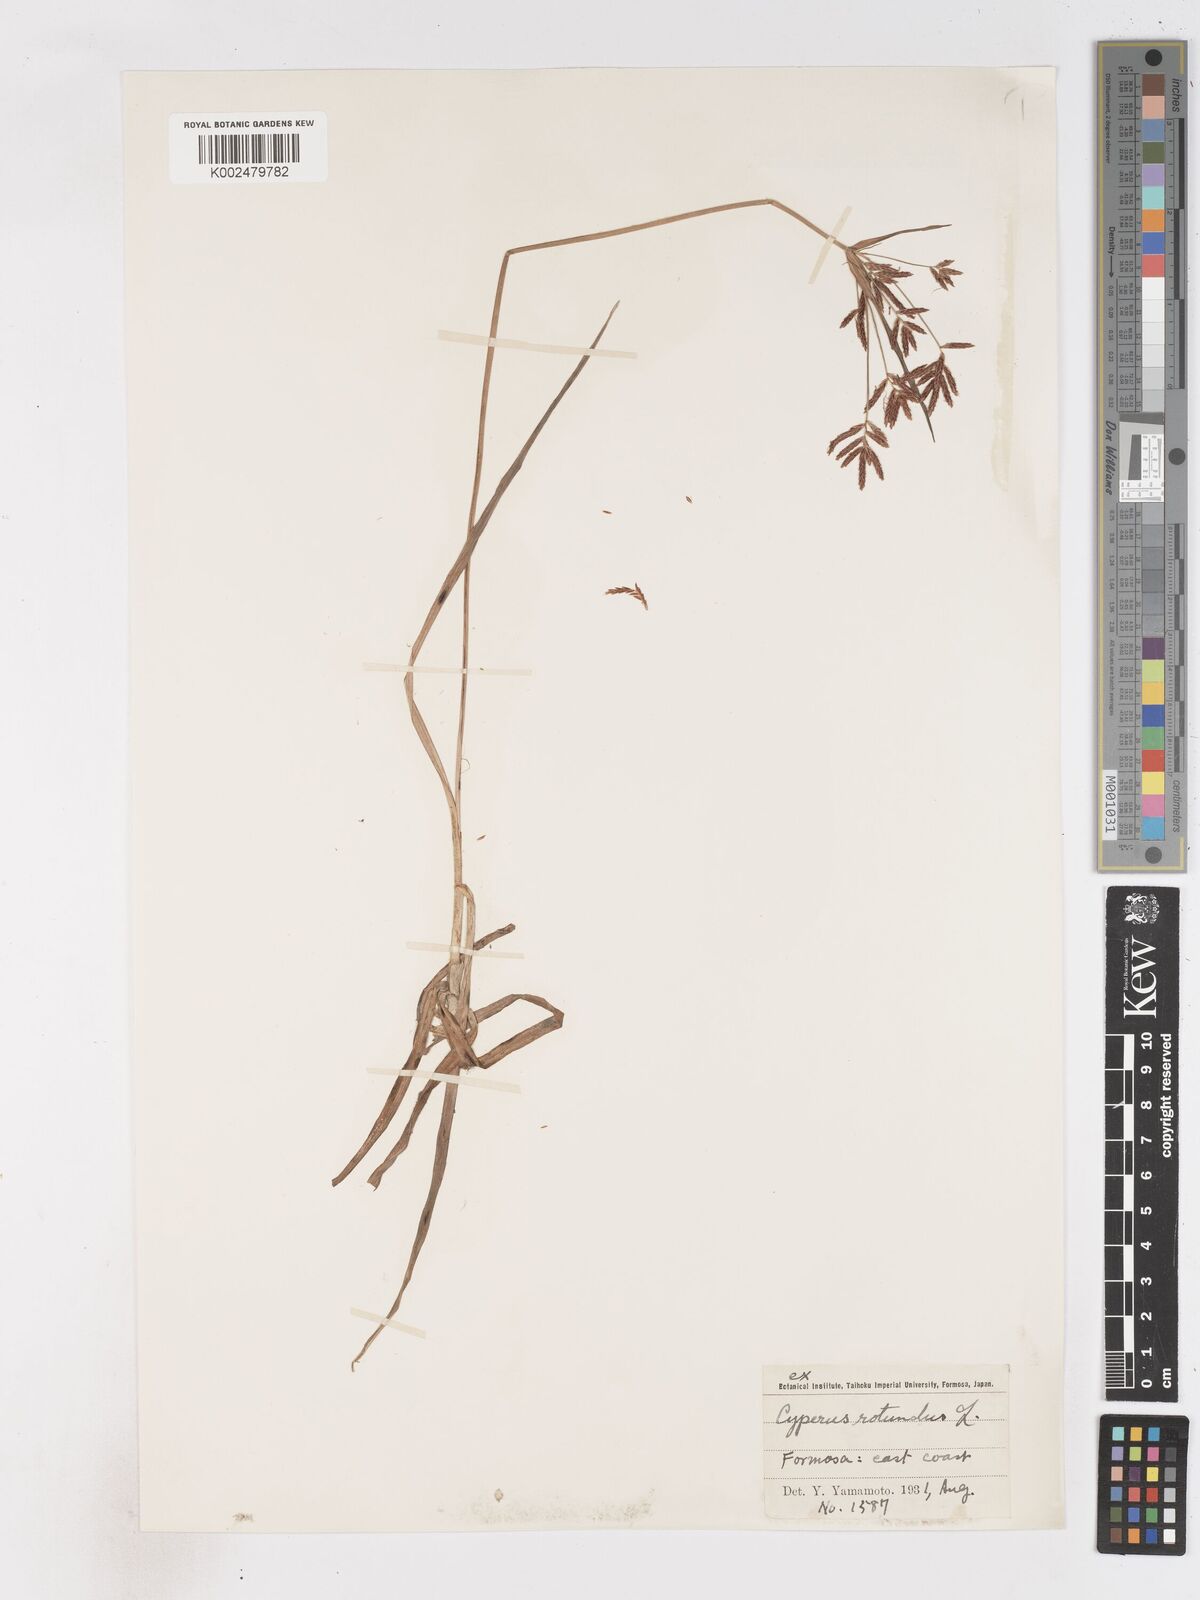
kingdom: Plantae
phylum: Tracheophyta
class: Liliopsida
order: Poales
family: Cyperaceae
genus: Cyperus
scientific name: Cyperus rotundus
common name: Nutgrass
